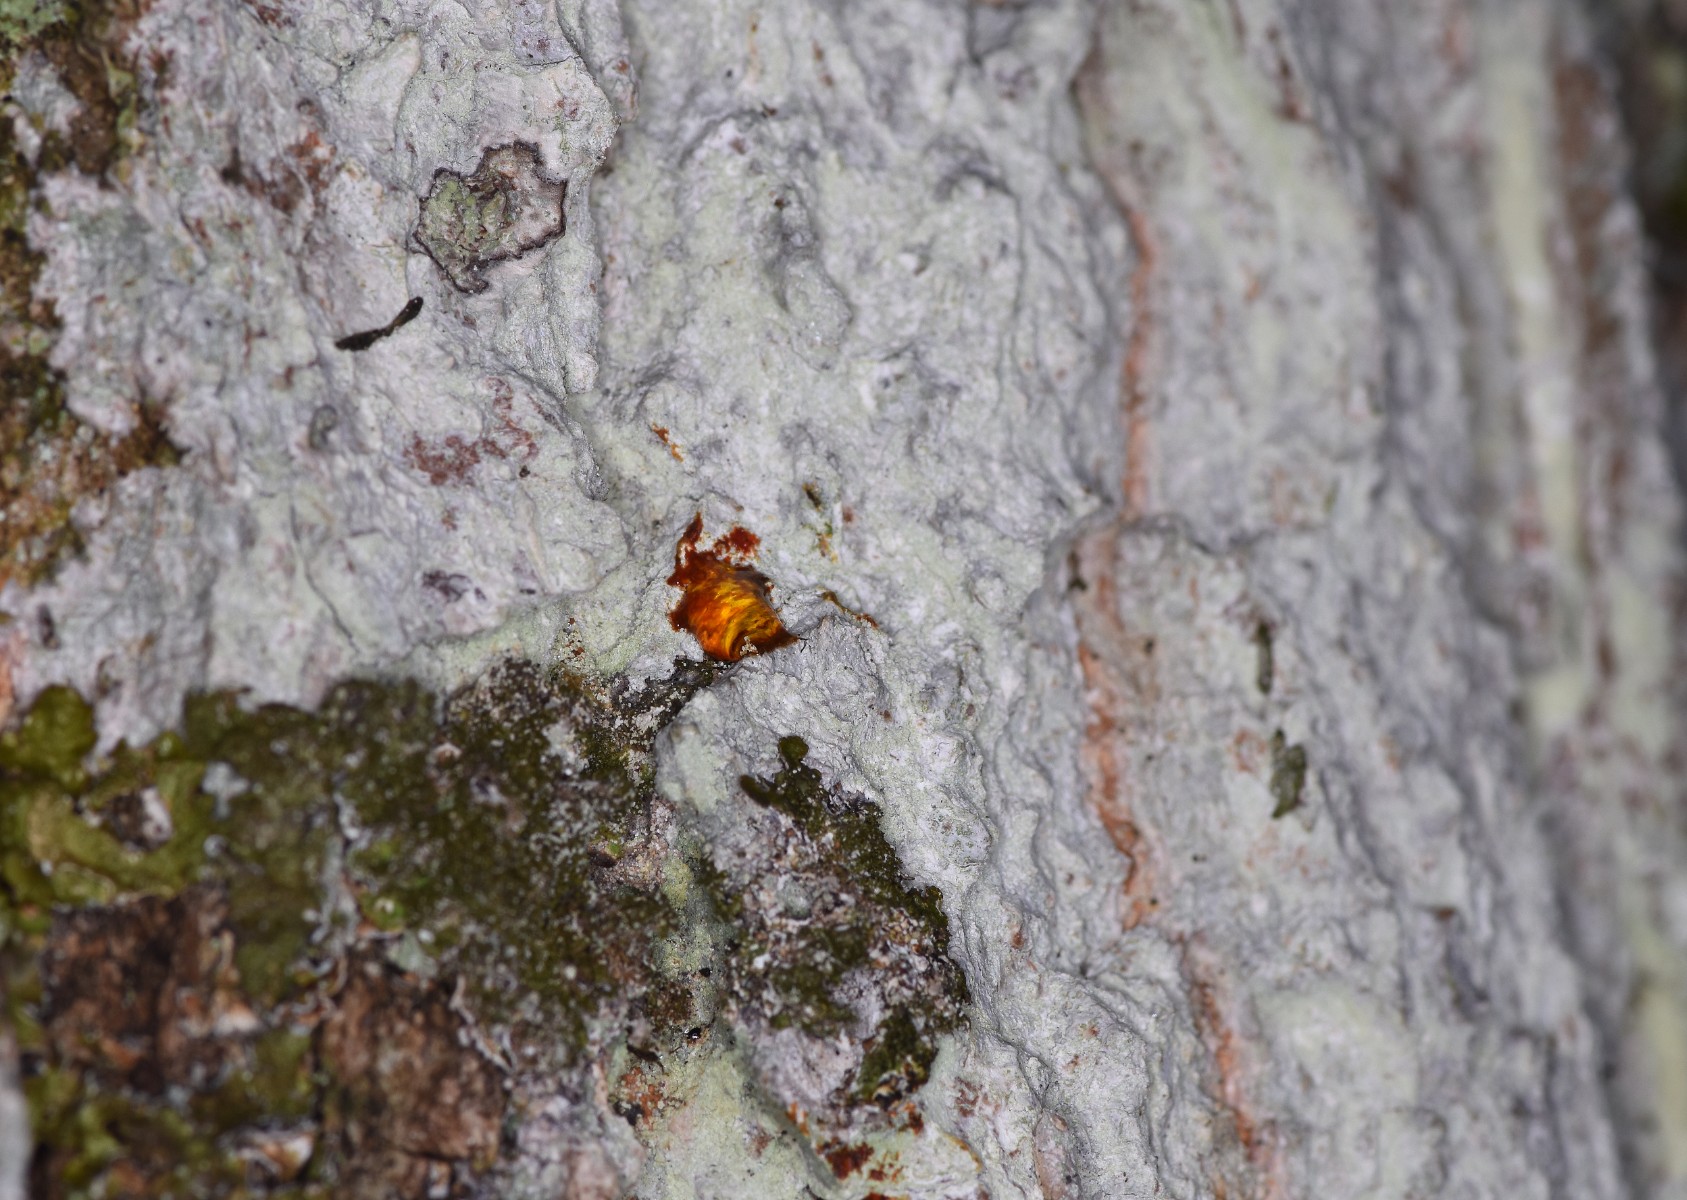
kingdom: Fungi
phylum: Ascomycota
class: Lecanoromycetes
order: Ostropales
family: Phlyctidaceae
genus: Phlyctis
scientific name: Phlyctis argena
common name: almindelig sølvlav
